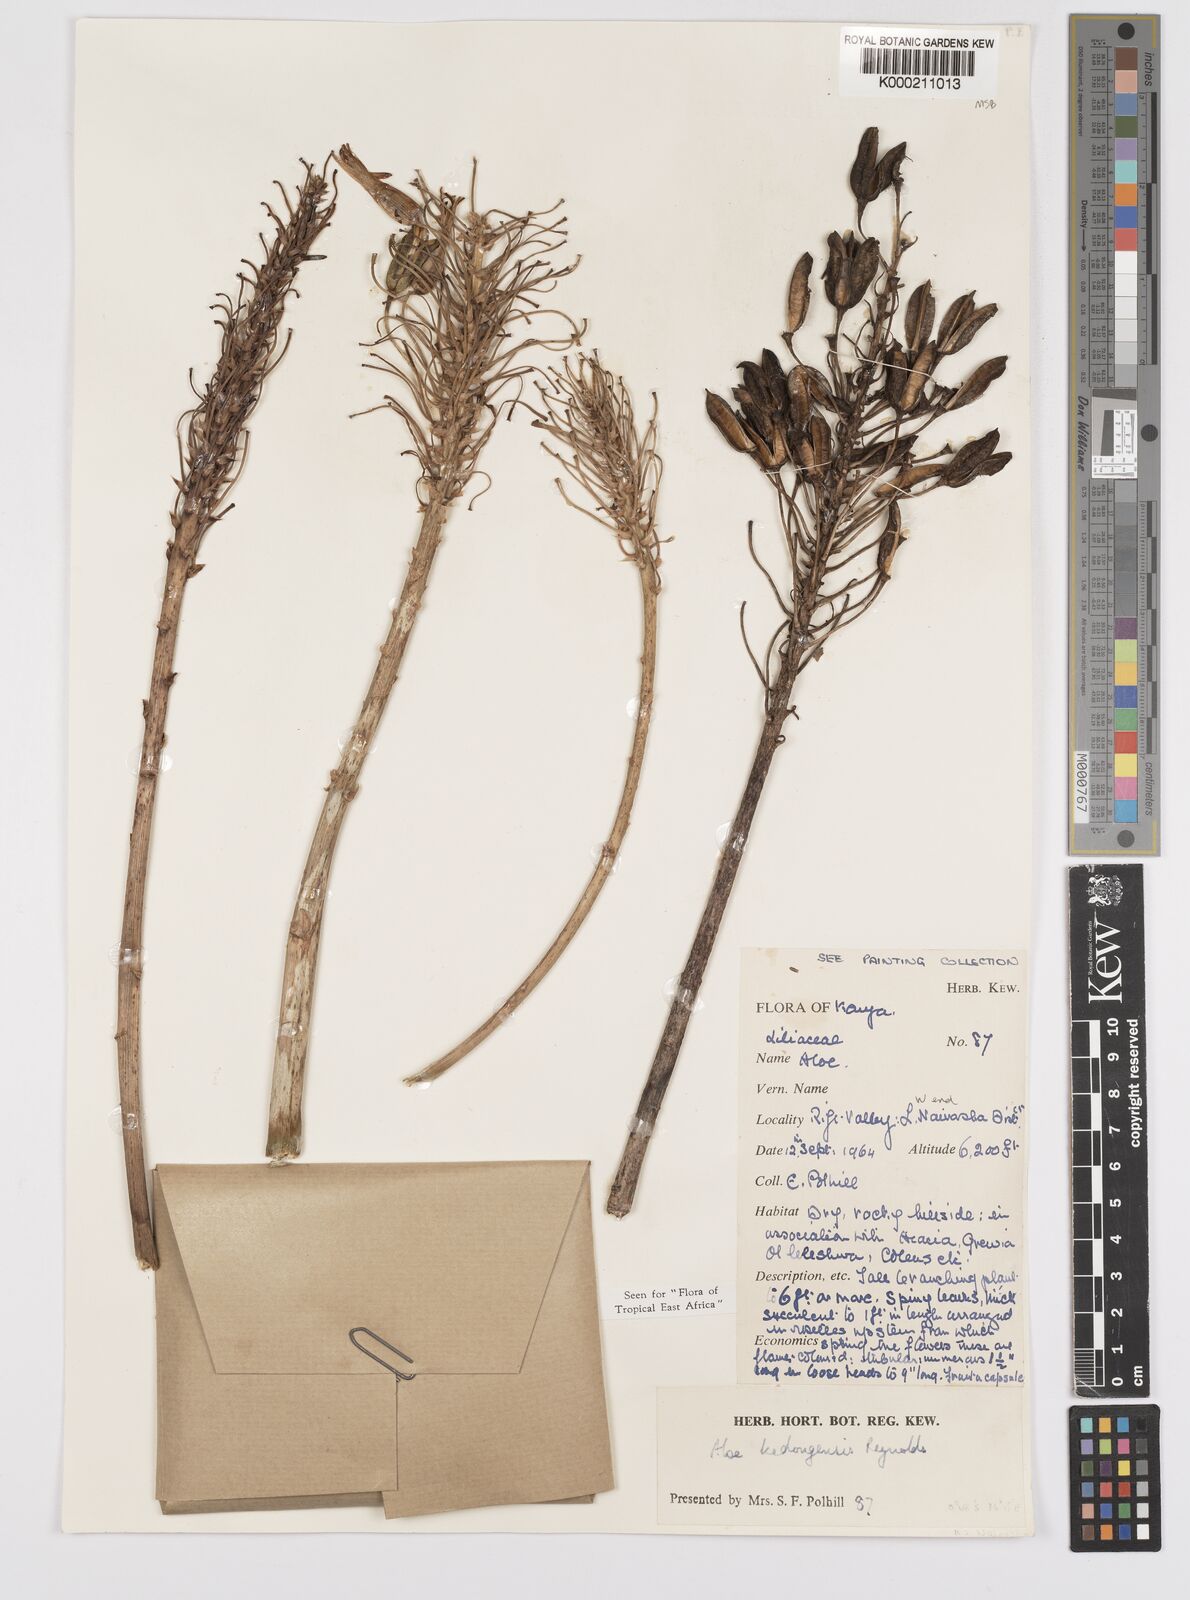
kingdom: Plantae
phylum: Tracheophyta
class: Liliopsida
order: Asparagales
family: Asphodelaceae
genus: Aloe
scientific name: Aloe kedongensis
